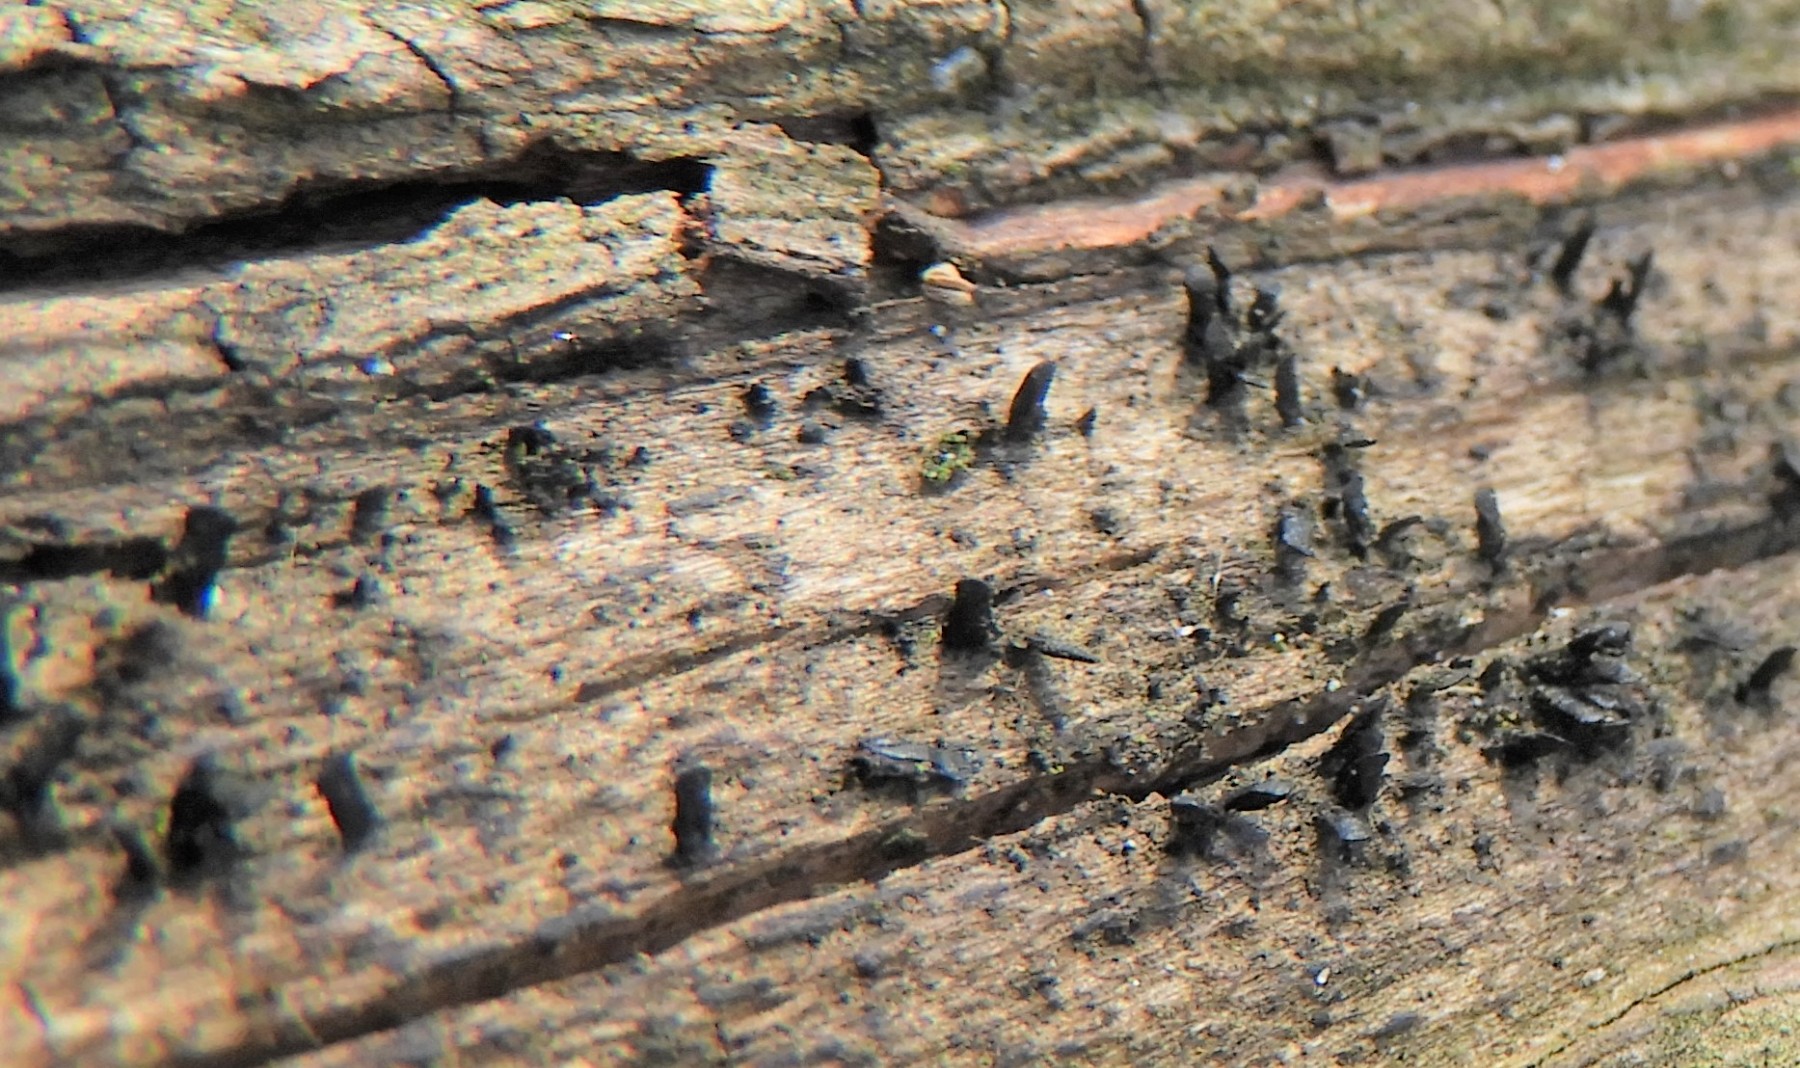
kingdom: Fungi
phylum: Ascomycota
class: Eurotiomycetes
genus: Glyphium
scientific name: Glyphium elatum
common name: kuløkse
